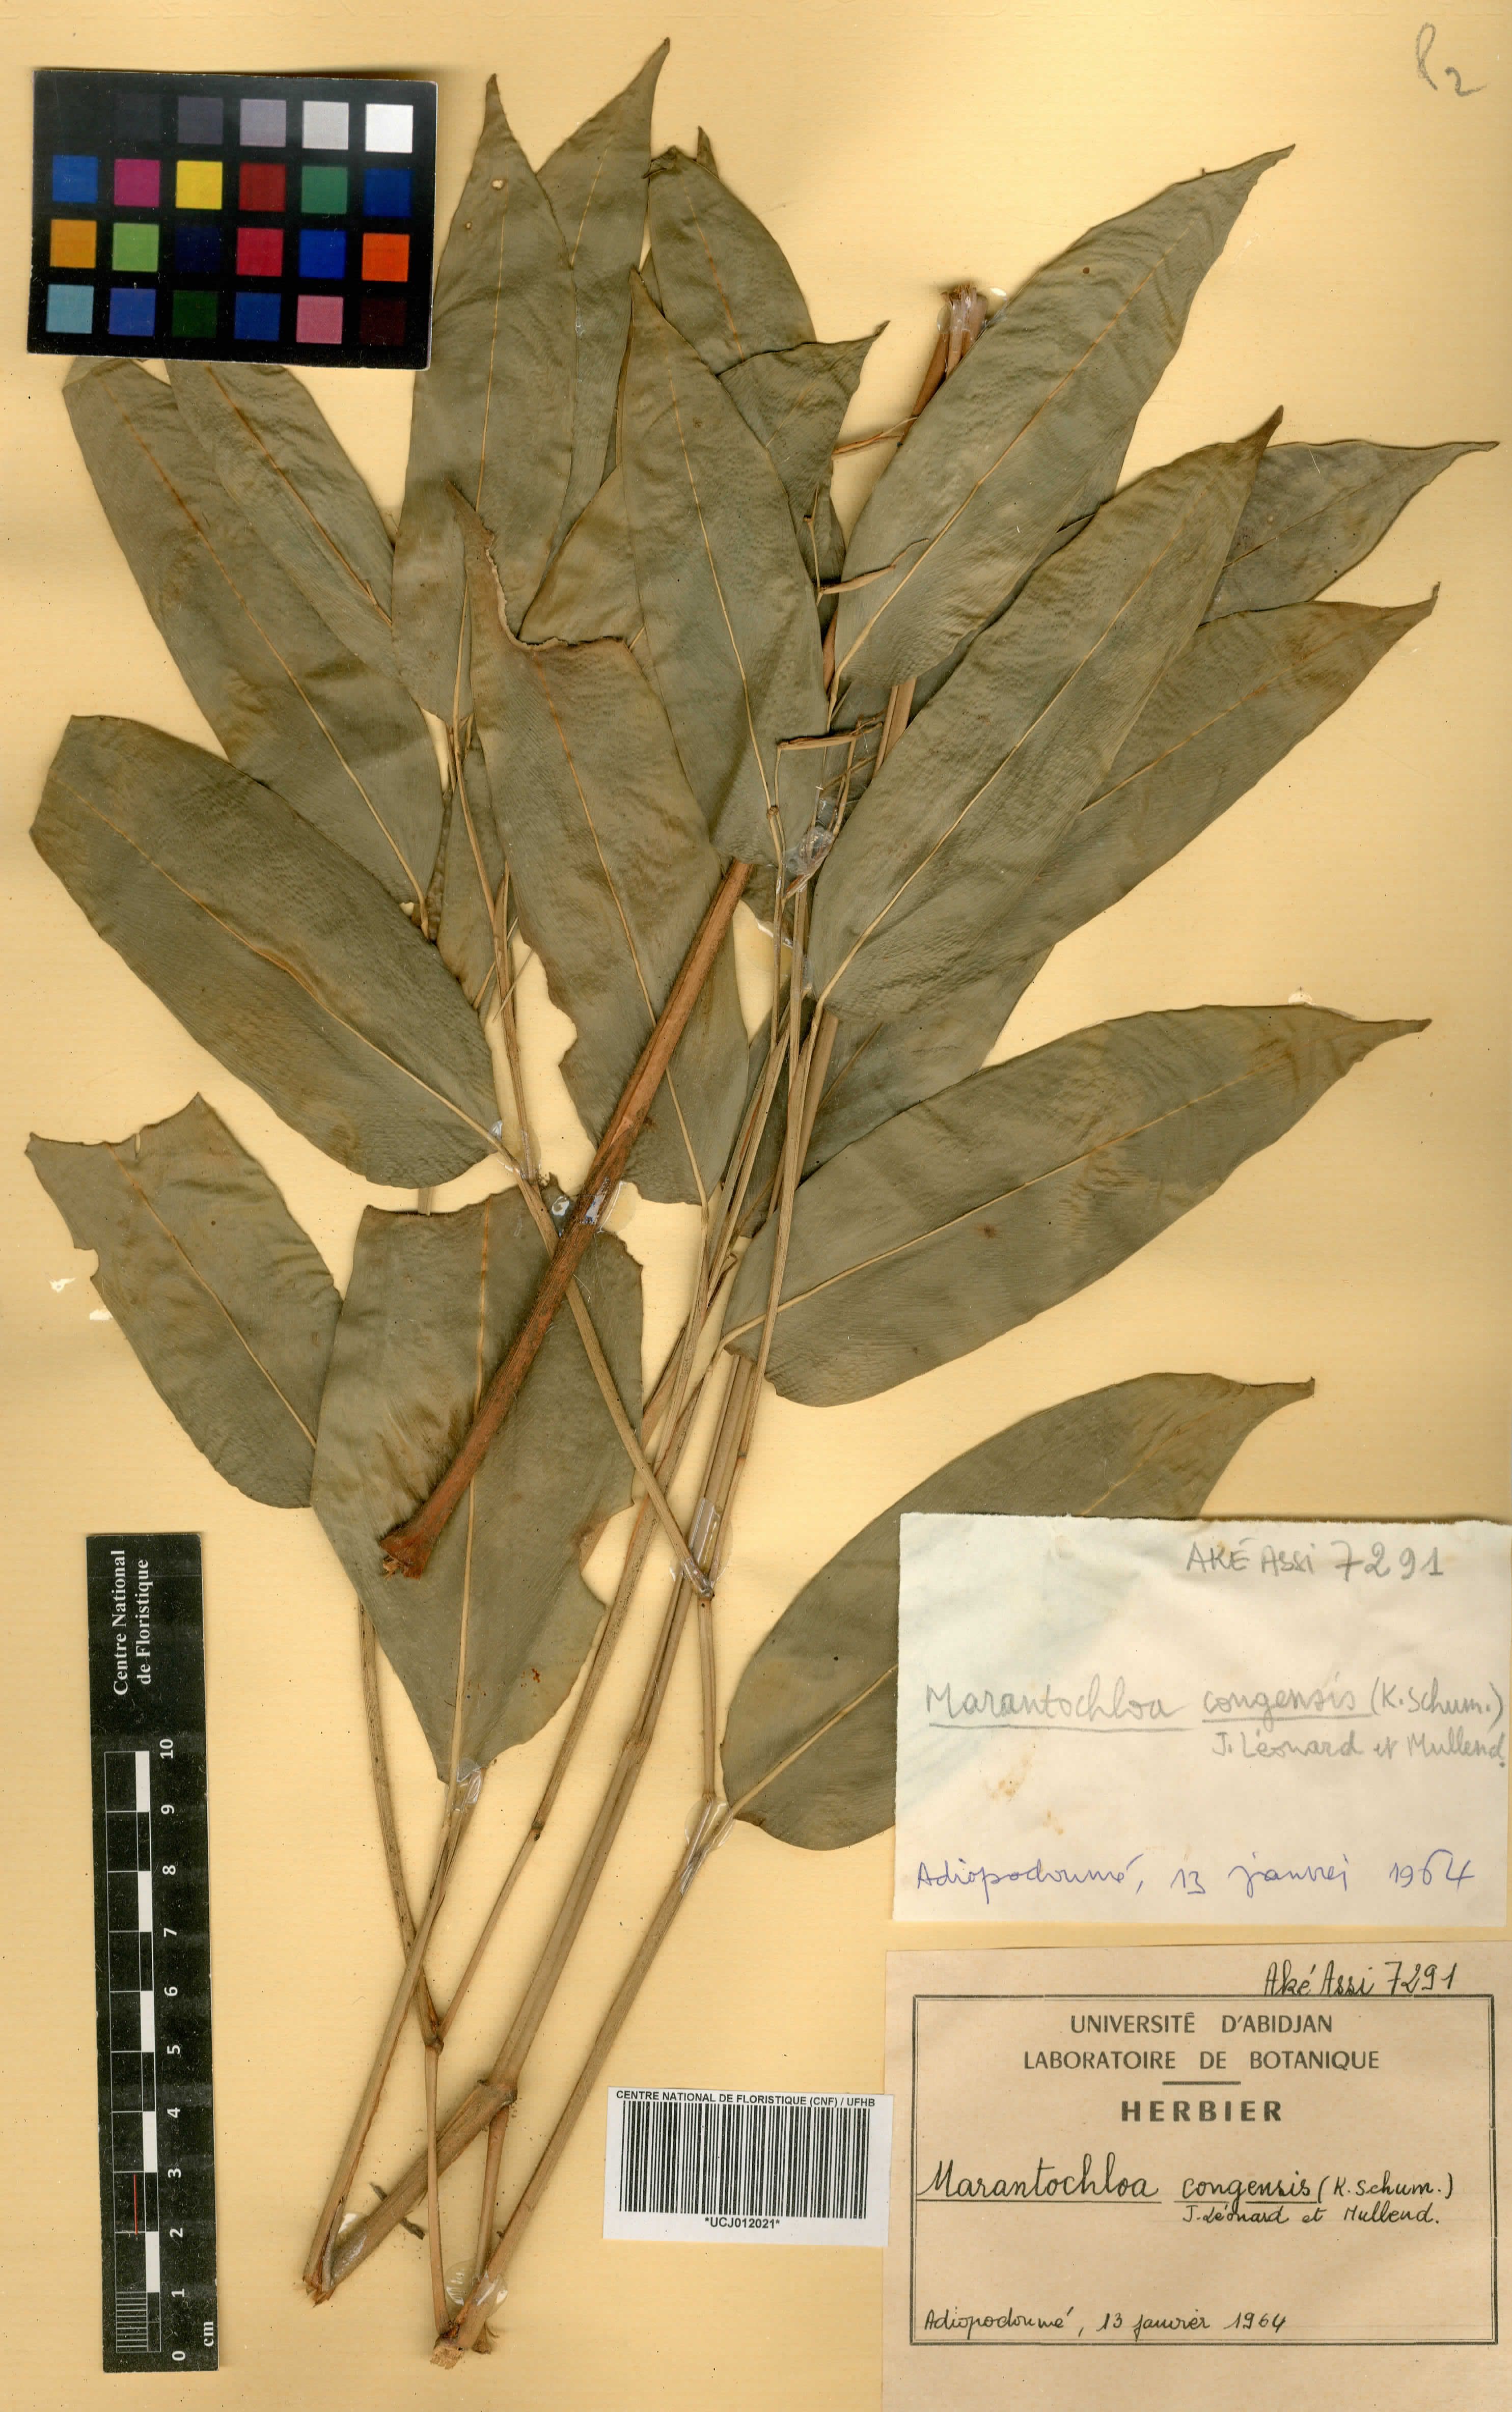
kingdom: Plantae
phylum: Tracheophyta
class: Liliopsida
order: Zingiberales
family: Marantaceae
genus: Marantochloa
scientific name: Marantochloa congensis
